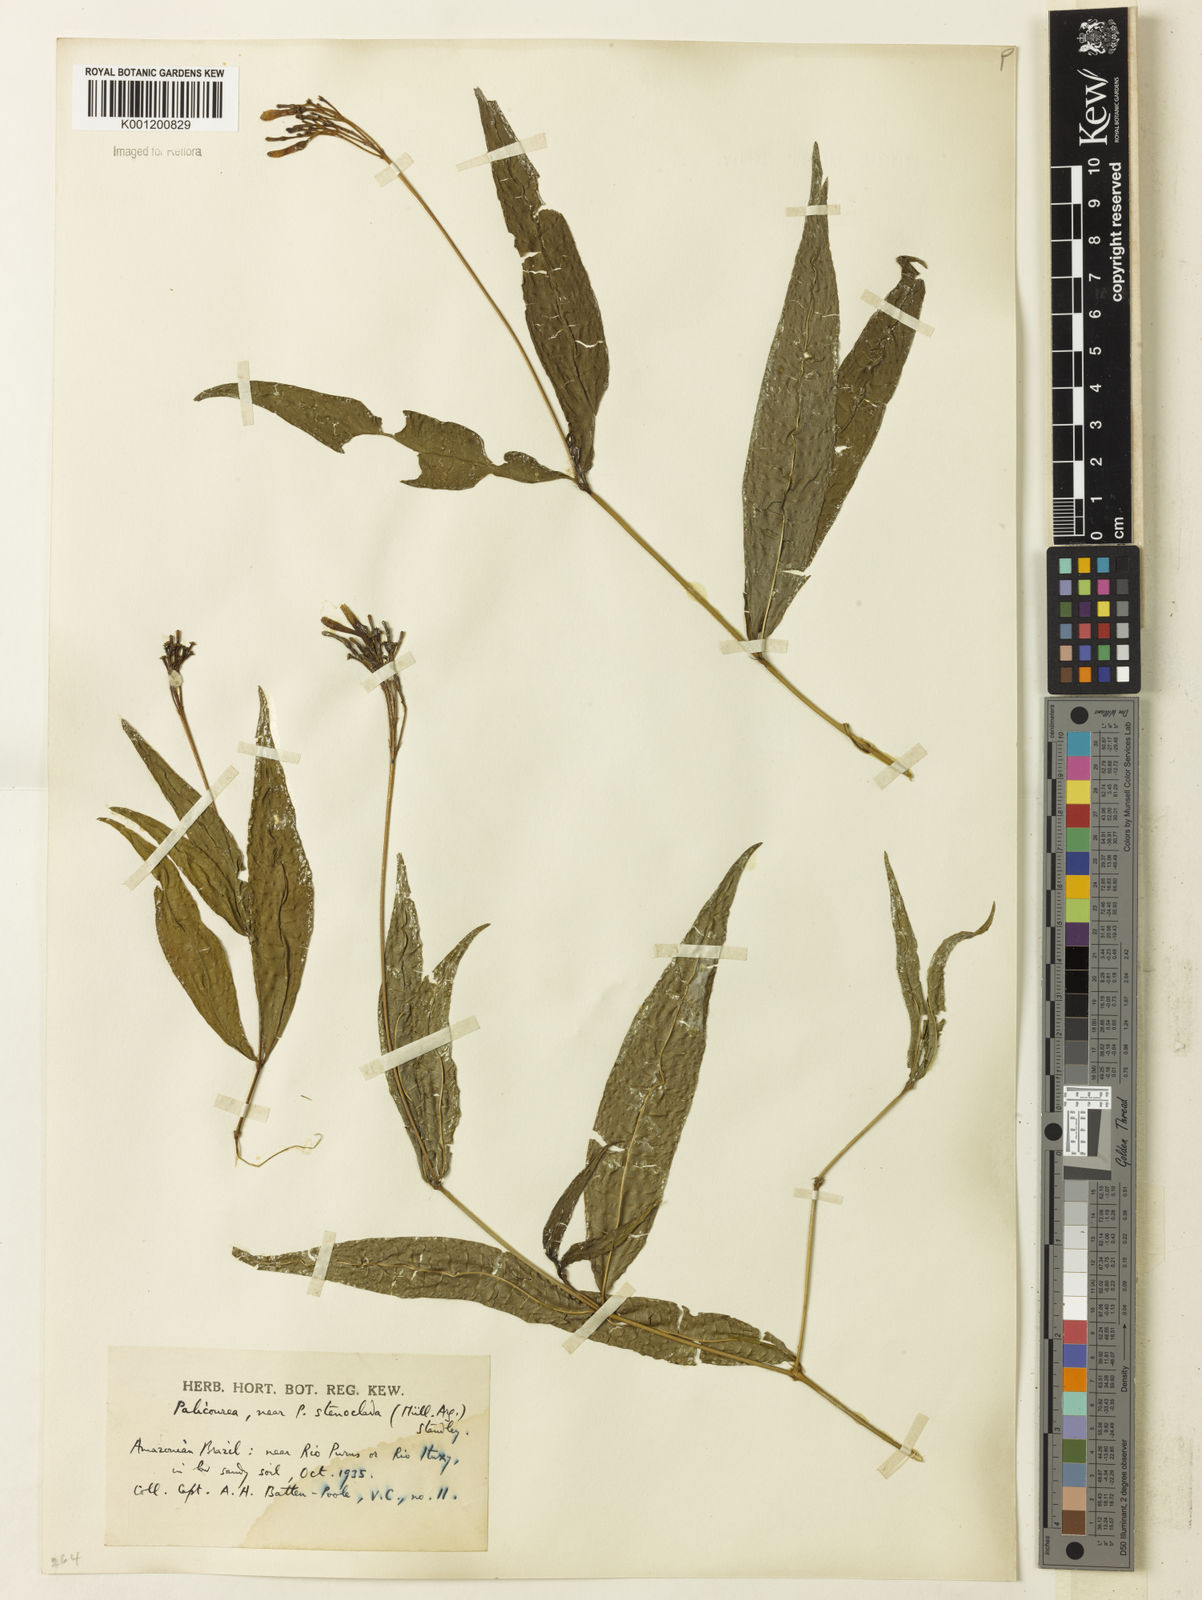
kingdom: Plantae
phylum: Tracheophyta
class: Magnoliopsida
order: Gentianales
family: Rubiaceae
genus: Palicourea
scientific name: Palicourea croceoides
